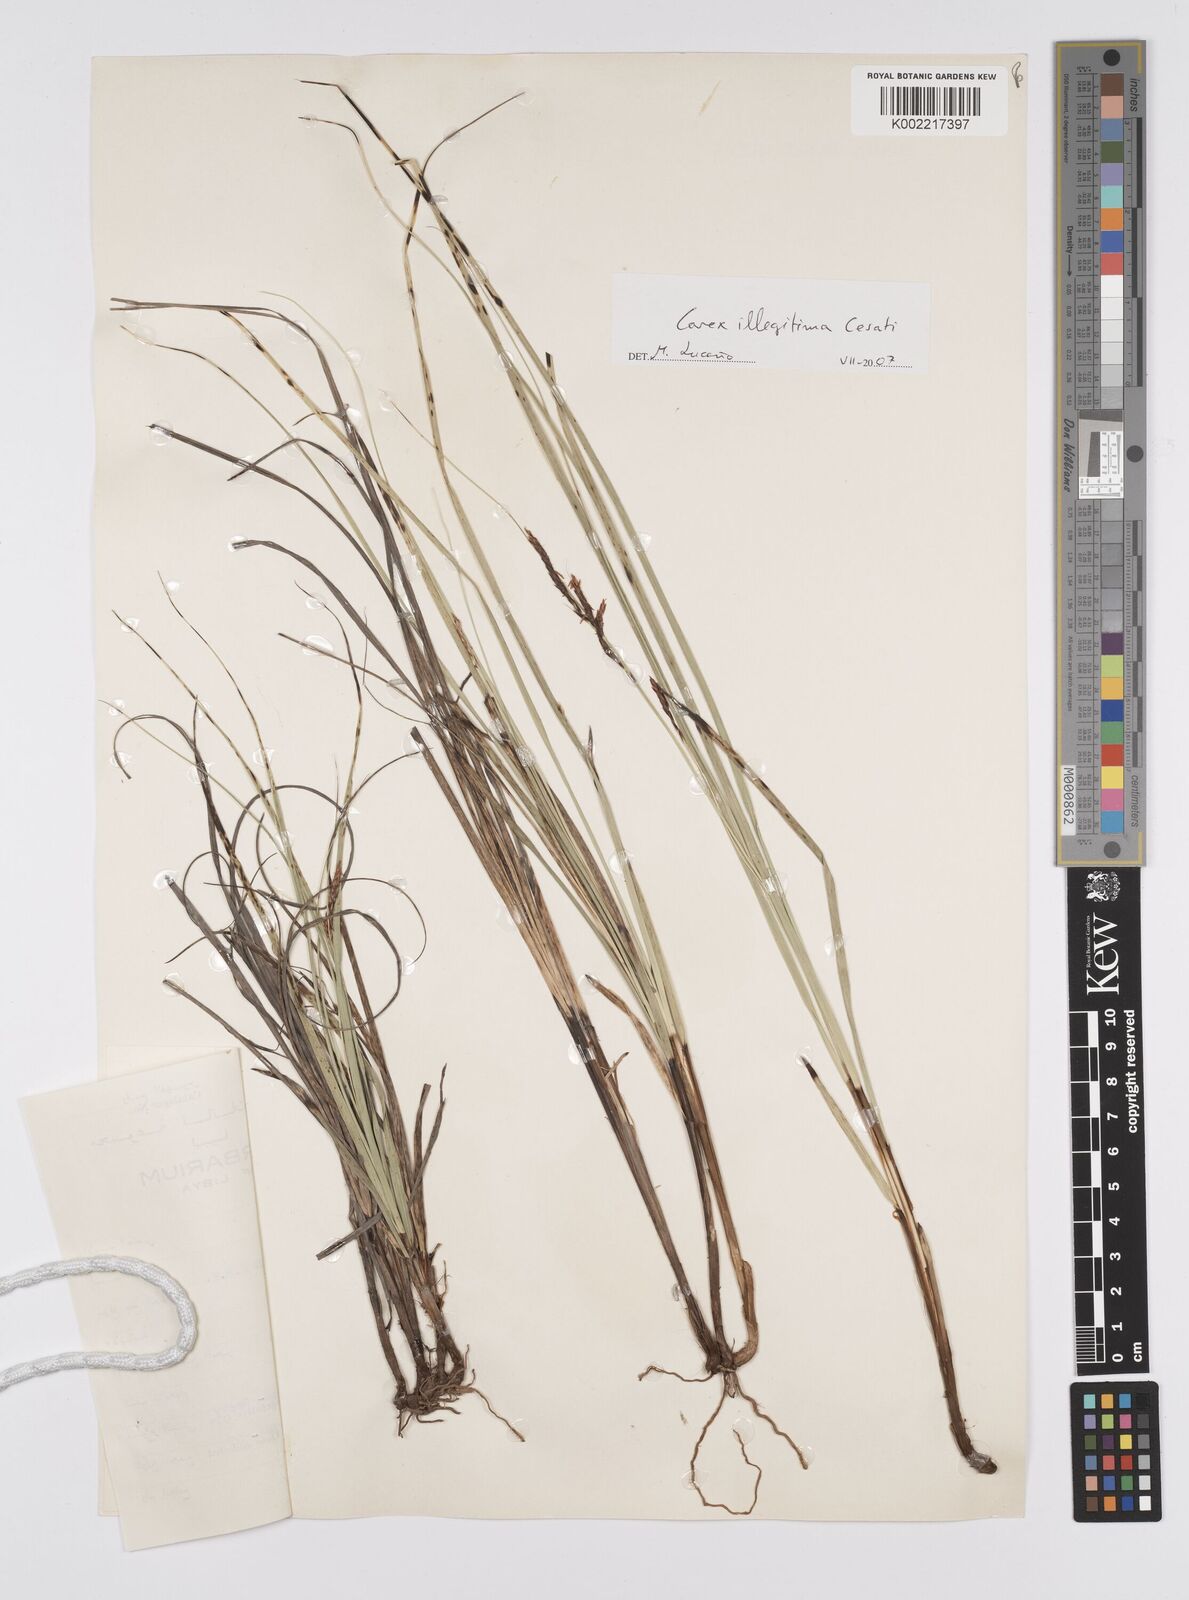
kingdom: Plantae
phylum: Tracheophyta
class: Liliopsida
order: Poales
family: Cyperaceae
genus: Carex
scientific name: Carex illegitima
